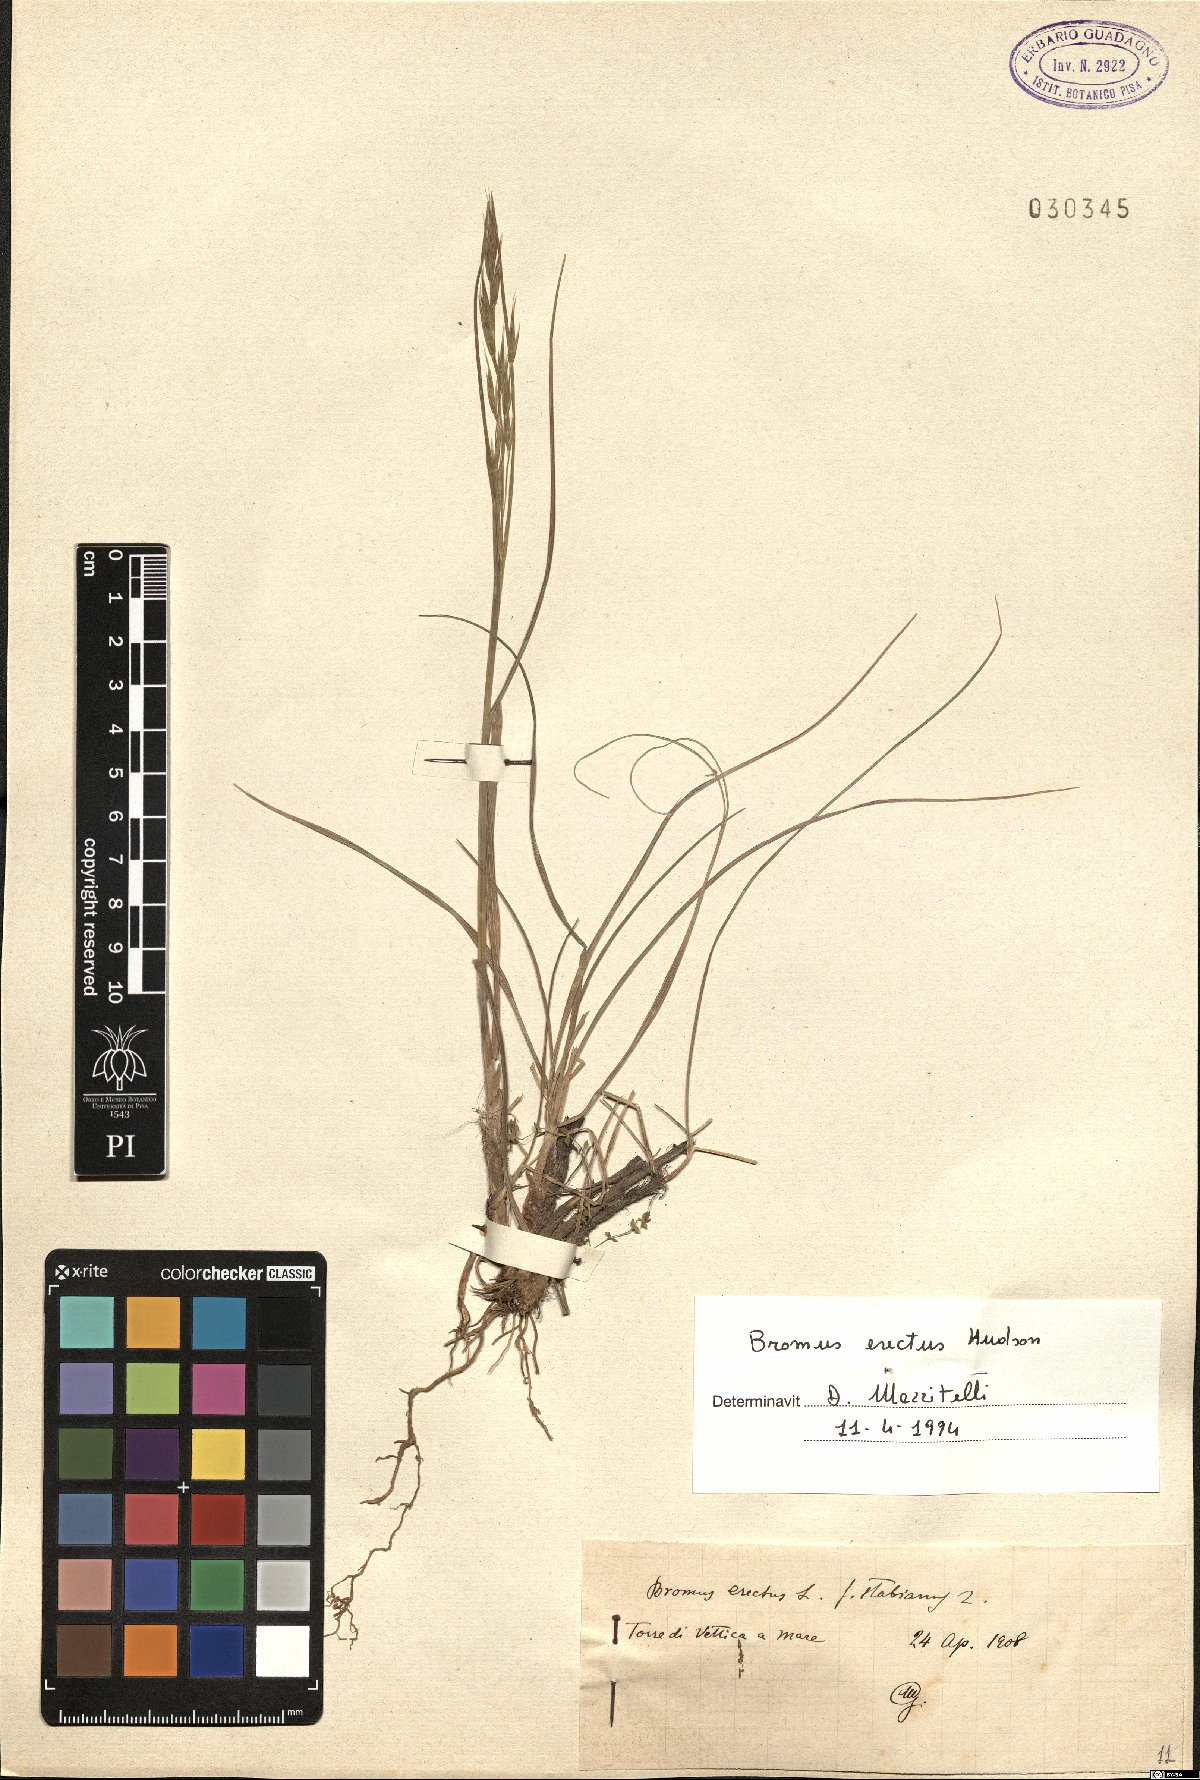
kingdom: Plantae
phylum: Tracheophyta
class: Liliopsida
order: Poales
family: Poaceae
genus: Bromus
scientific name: Bromus erectus
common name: Erect brome
